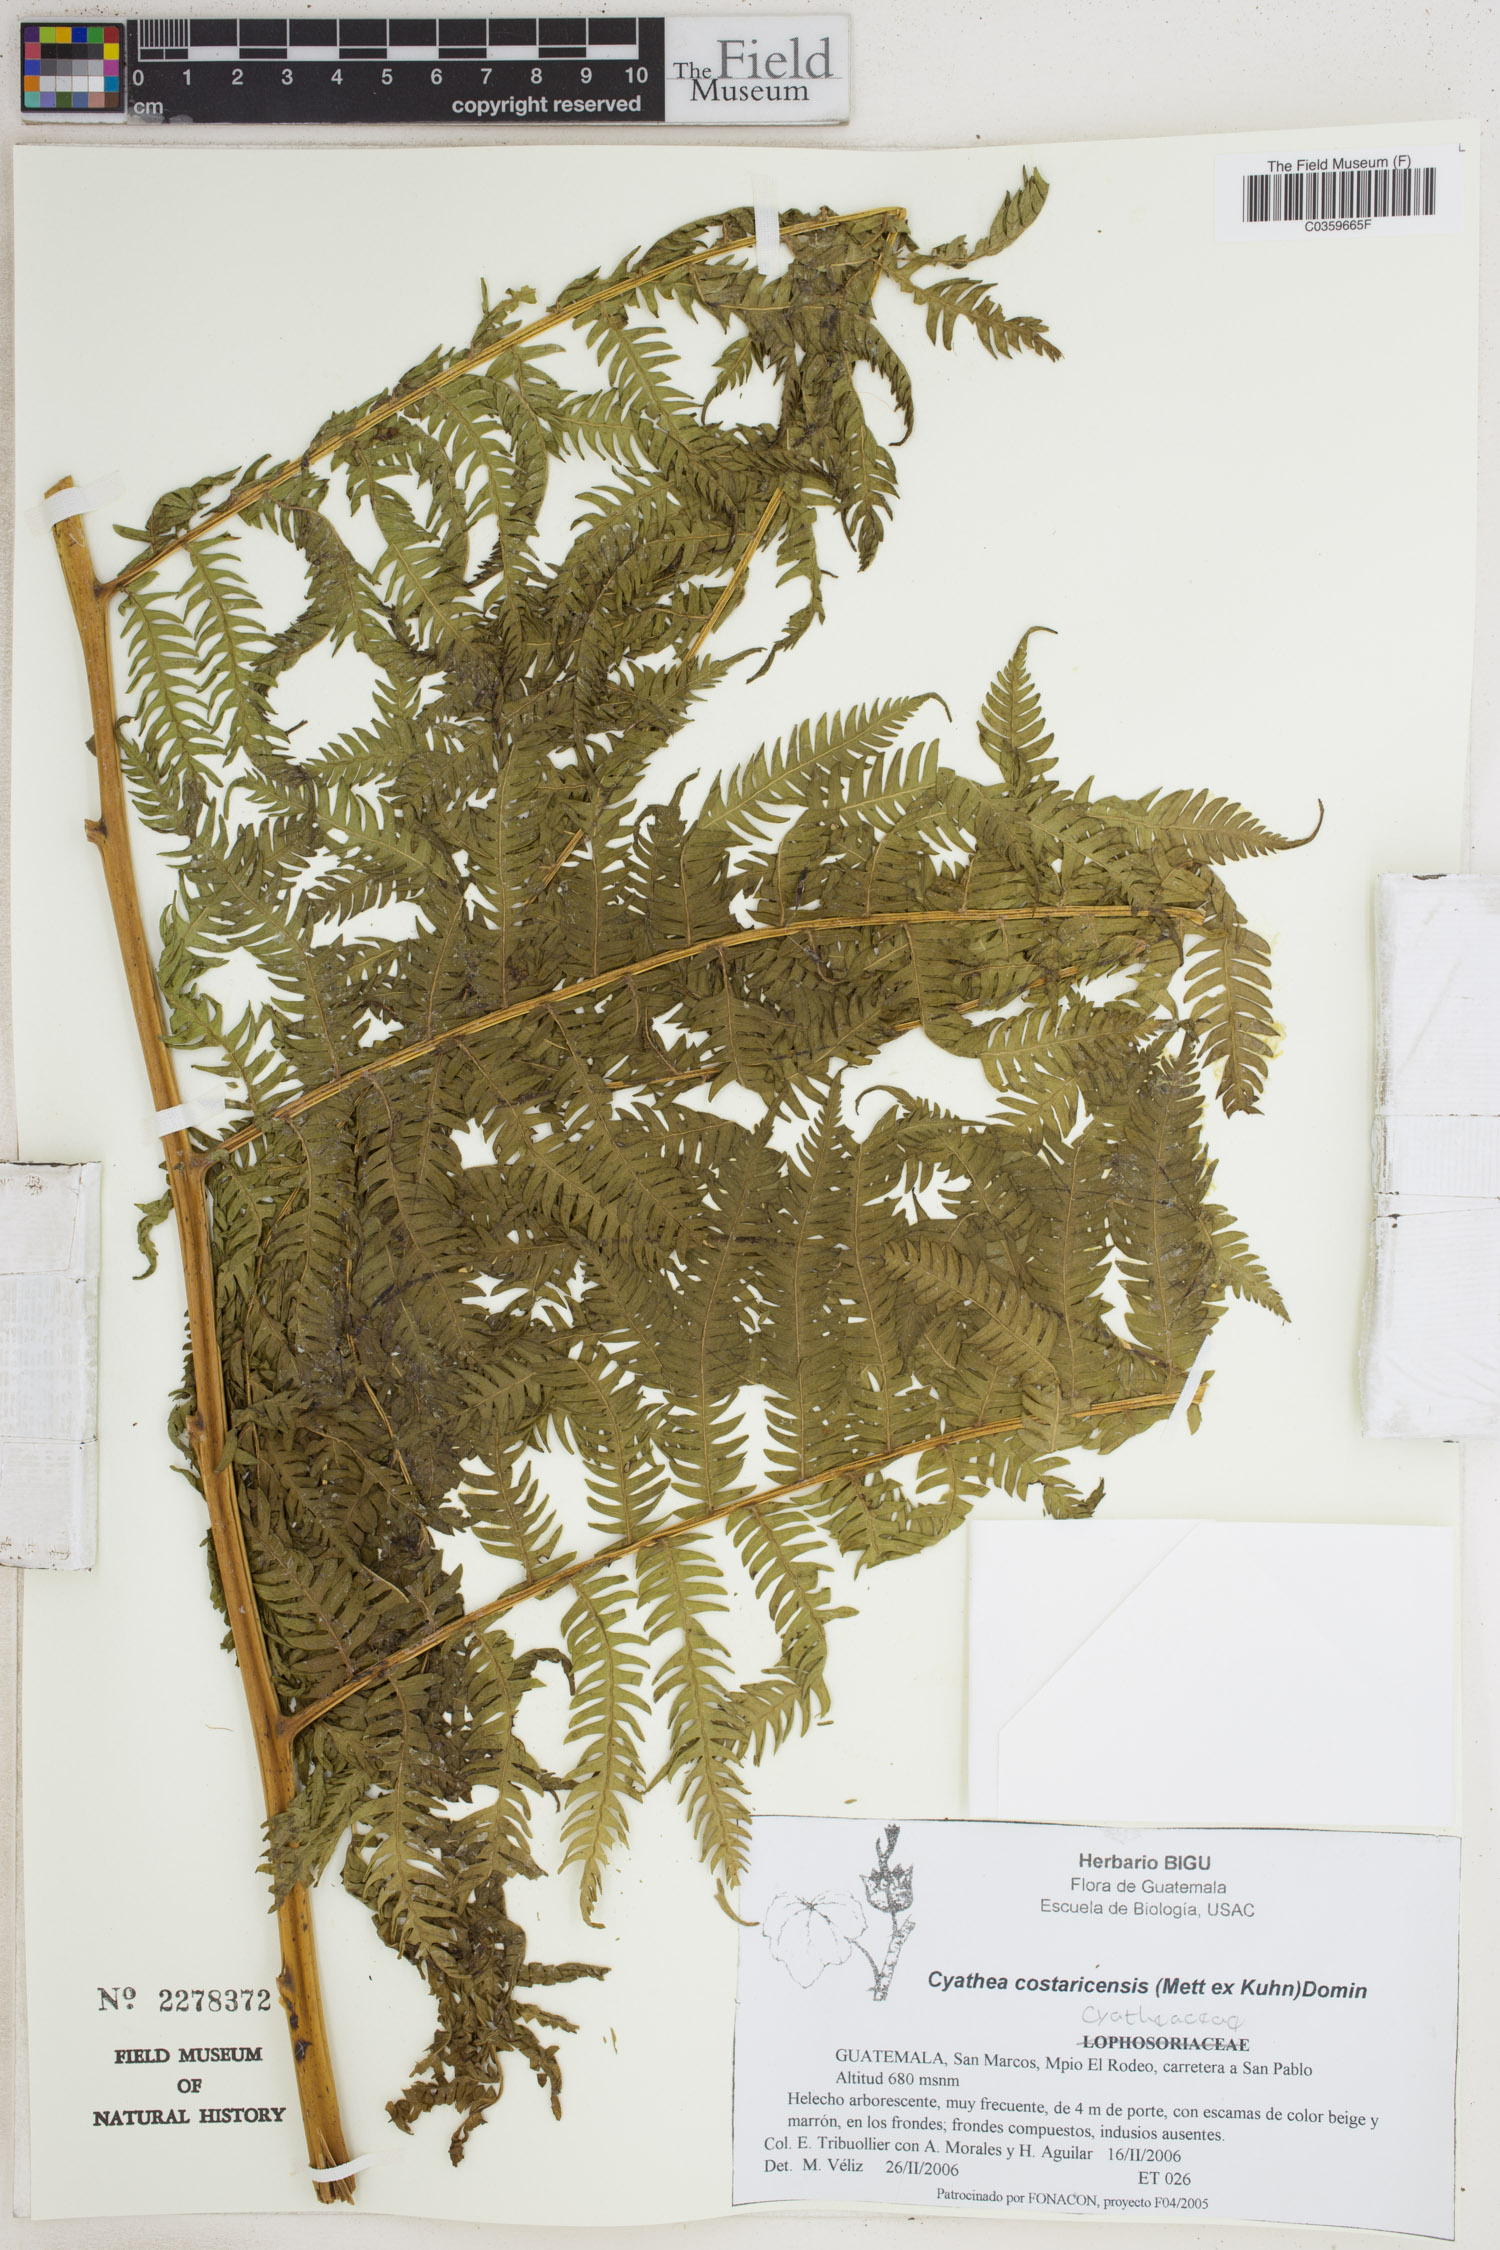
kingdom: Plantae
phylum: Tracheophyta
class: Polypodiopsida
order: Cyatheales
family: Cyatheaceae
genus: Cyathea
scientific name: Cyathea costaricensis
